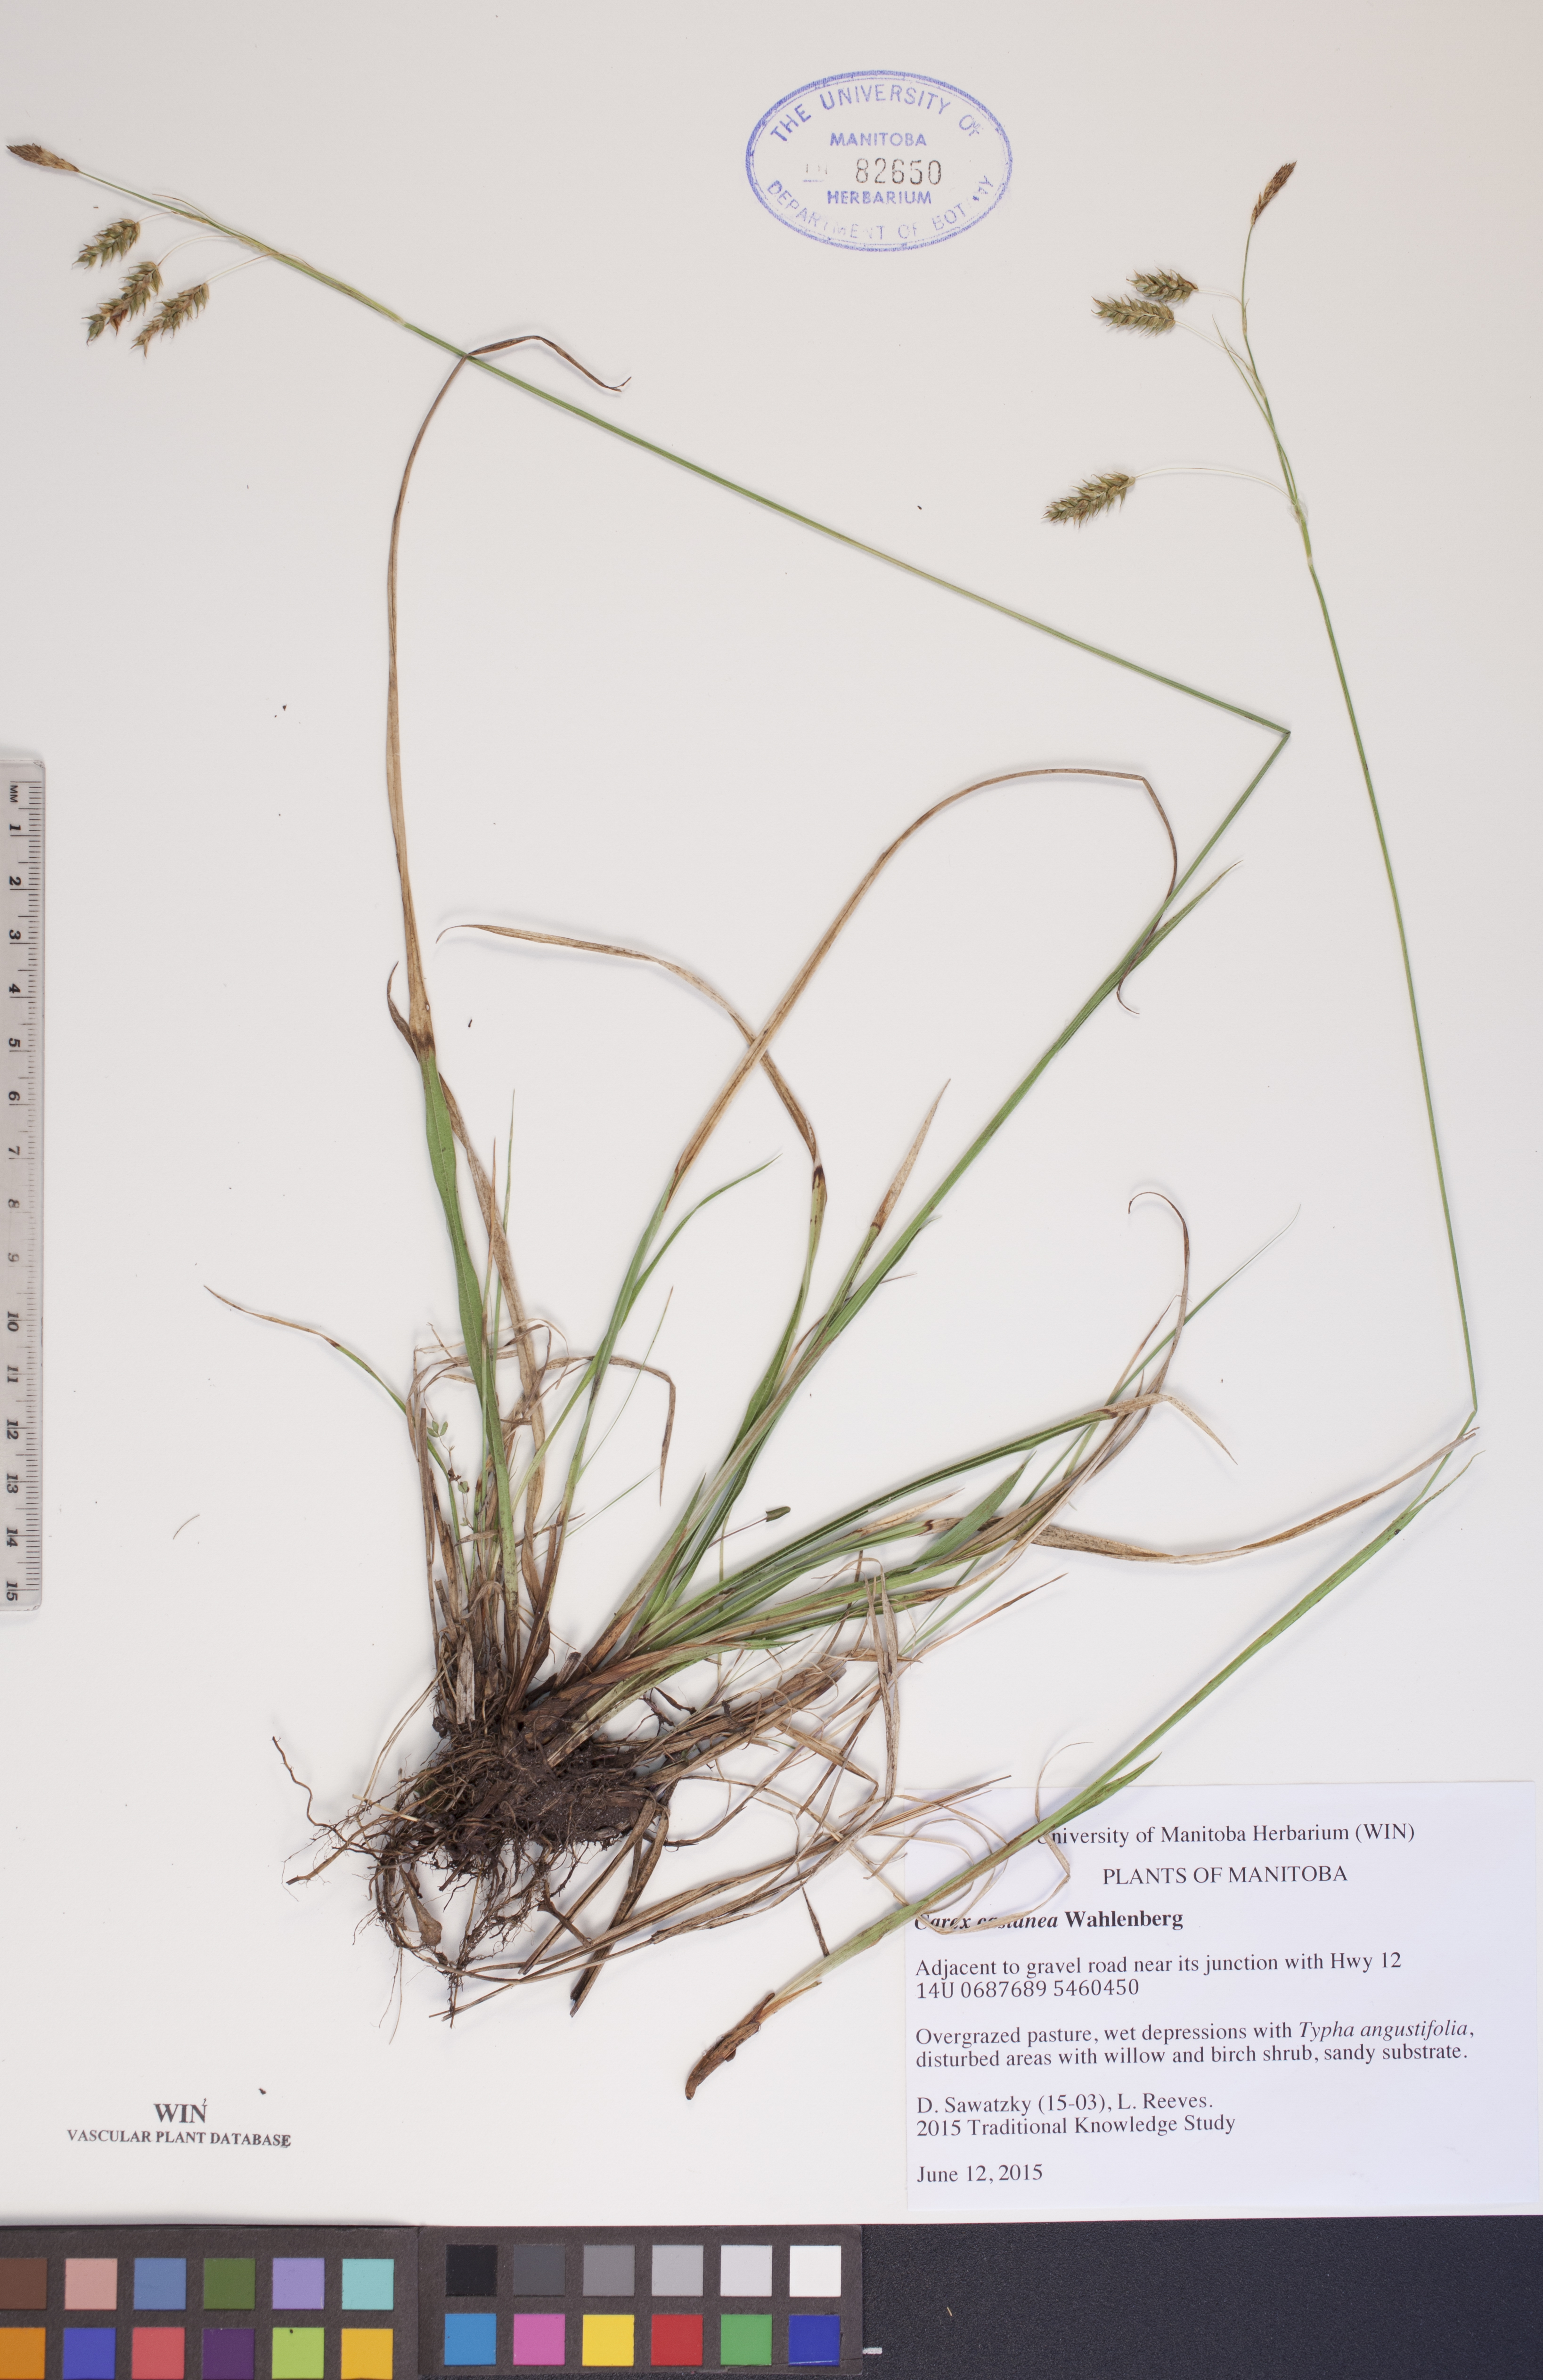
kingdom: Plantae
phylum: Tracheophyta
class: Liliopsida
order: Poales
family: Cyperaceae
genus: Carex
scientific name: Carex castanea
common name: Chestnut sedge
